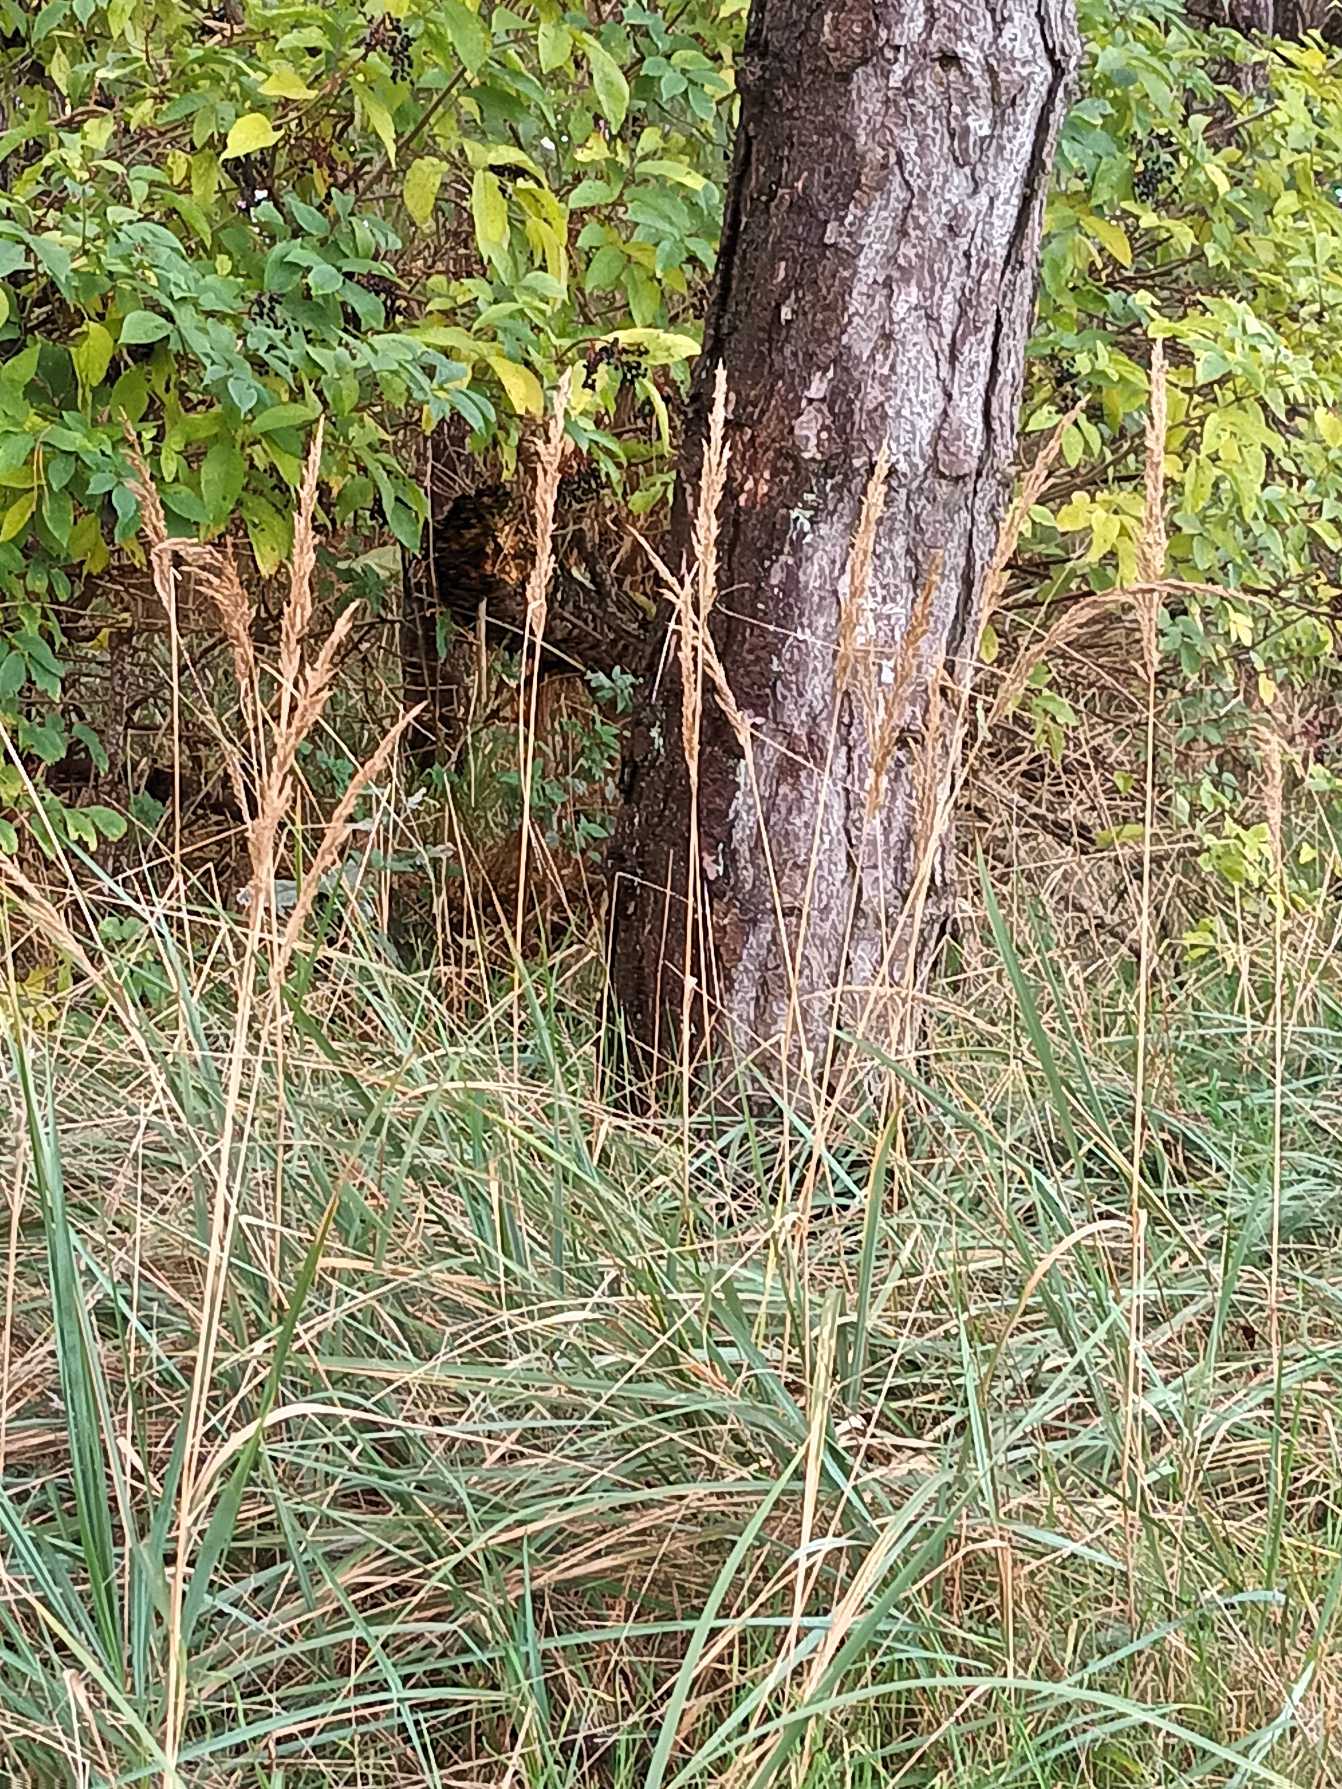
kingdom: Plantae
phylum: Tracheophyta
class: Liliopsida
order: Poales
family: Poaceae
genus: Calamagrostis
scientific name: Calamagrostis epigejos
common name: Bjerg-rørhvene
